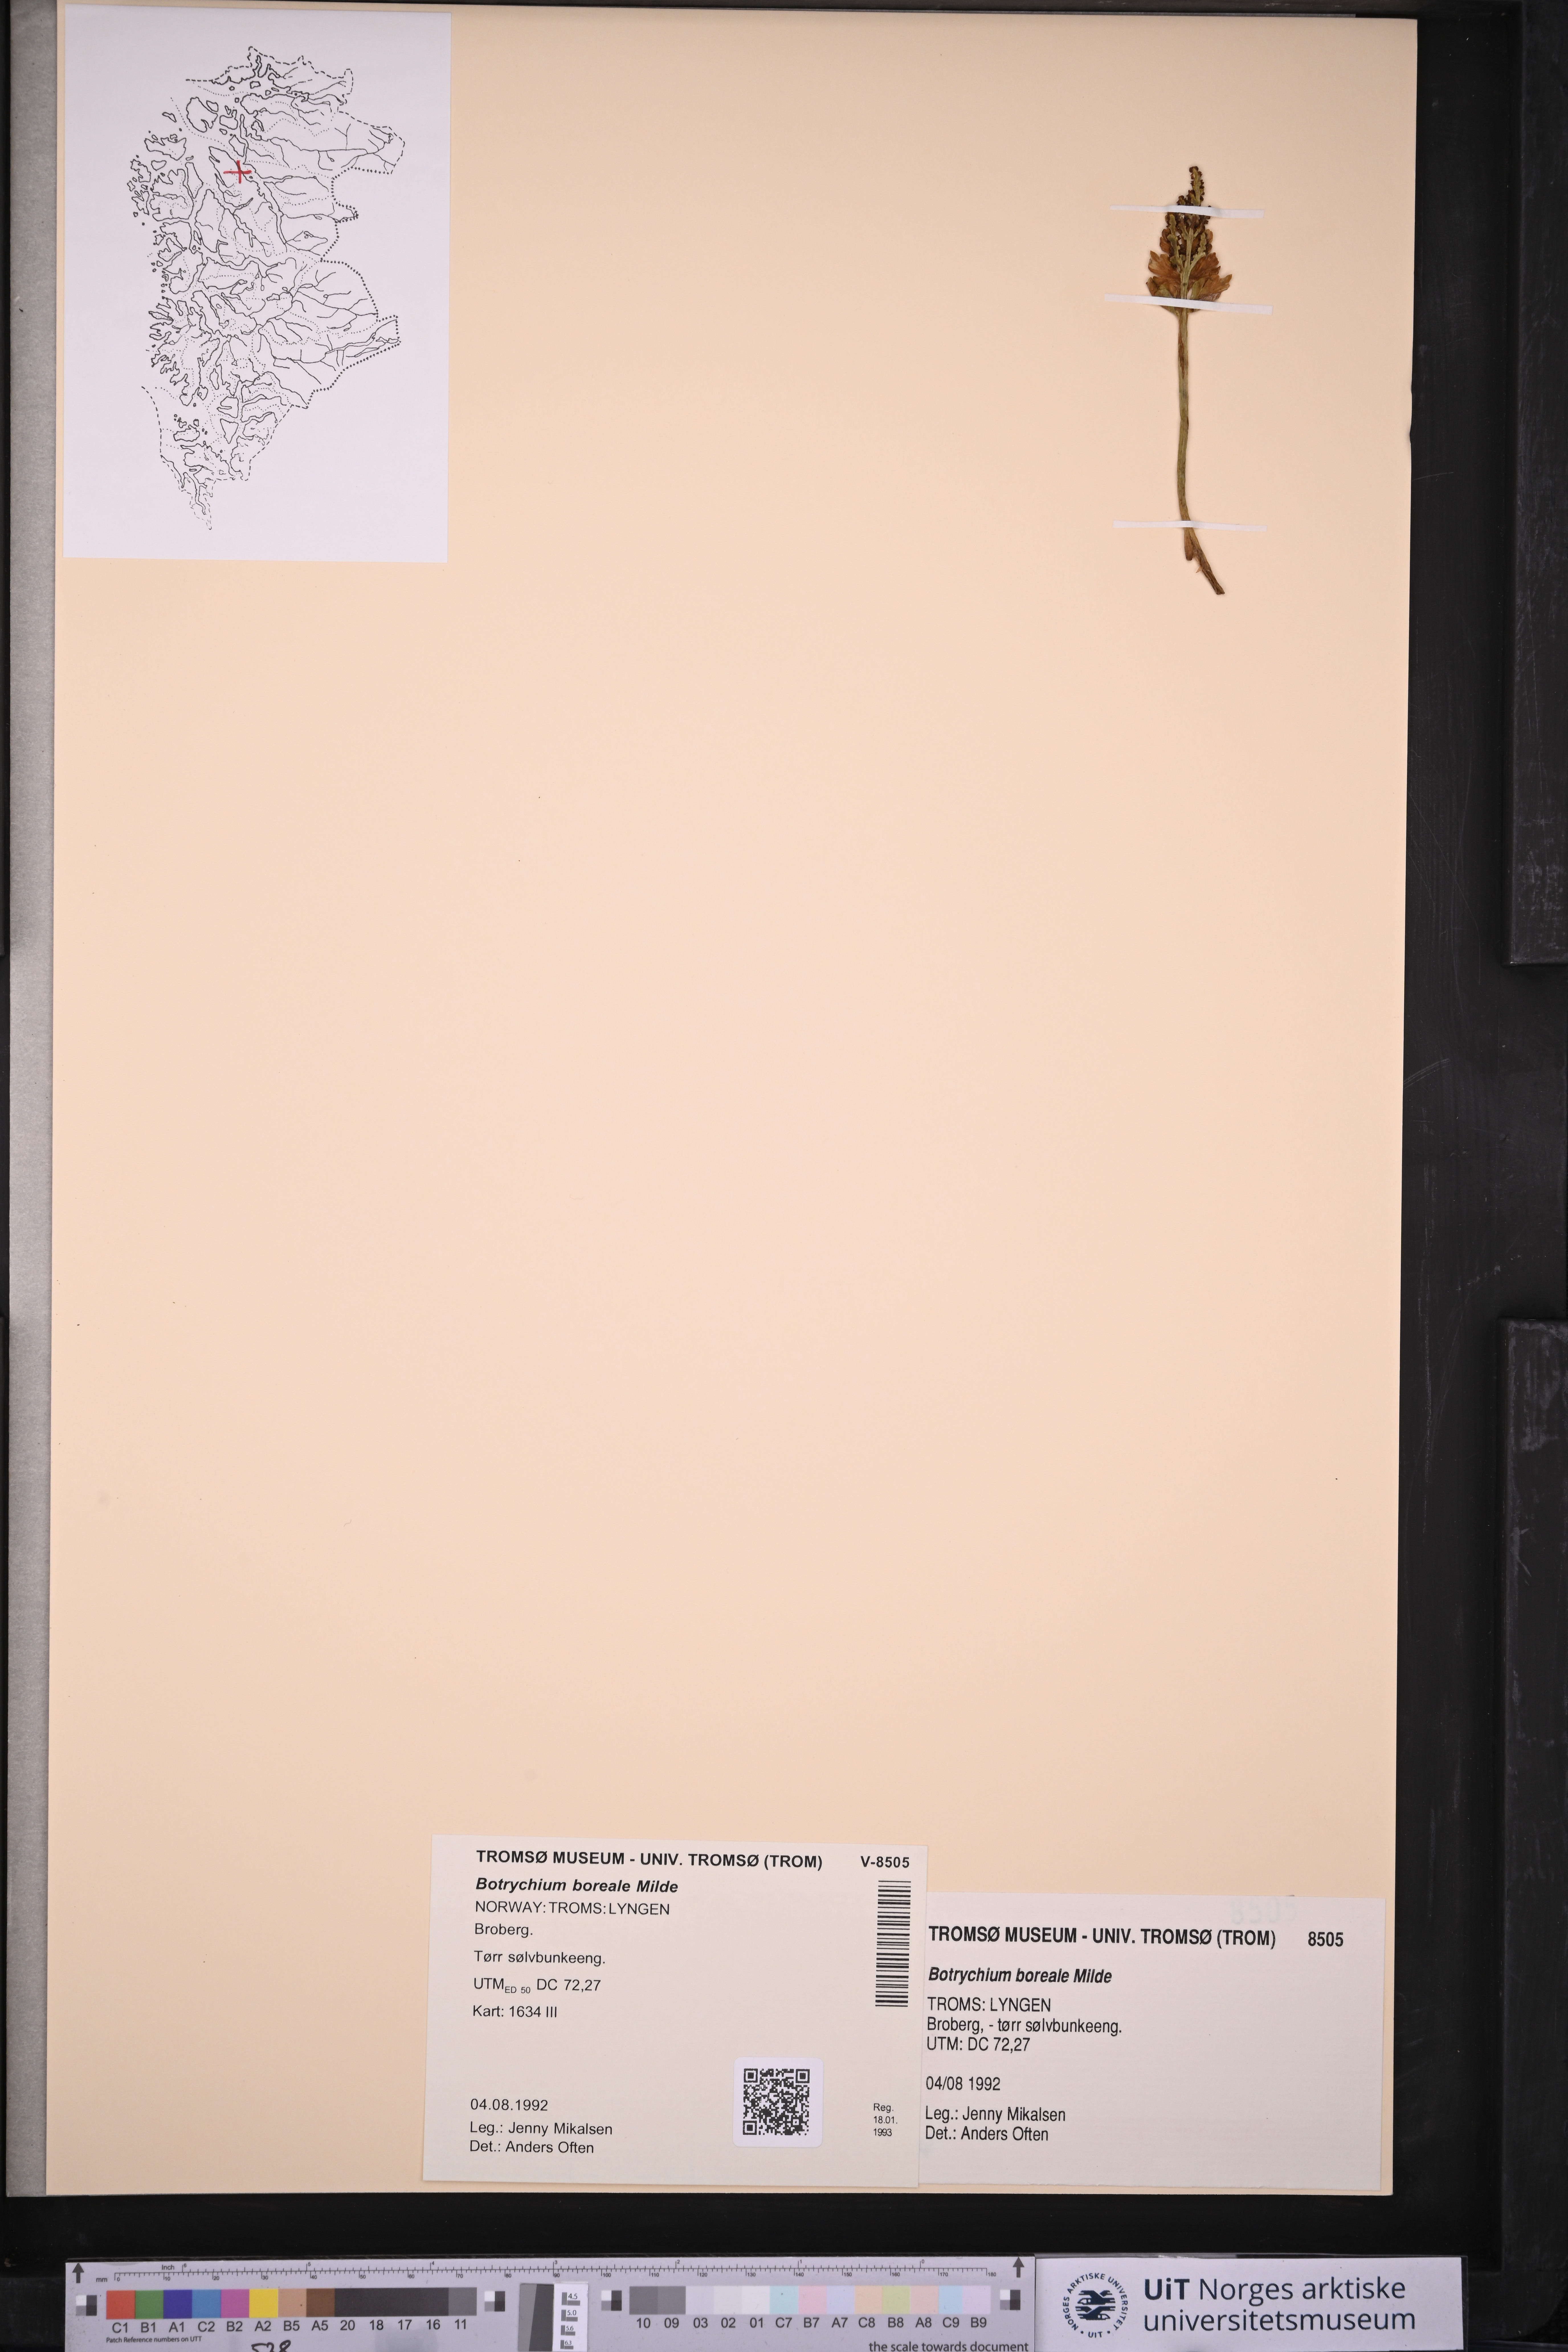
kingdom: Plantae
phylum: Tracheophyta
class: Polypodiopsida
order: Ophioglossales
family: Ophioglossaceae
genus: Botrychium
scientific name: Botrychium boreale
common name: Boreal moonwort
